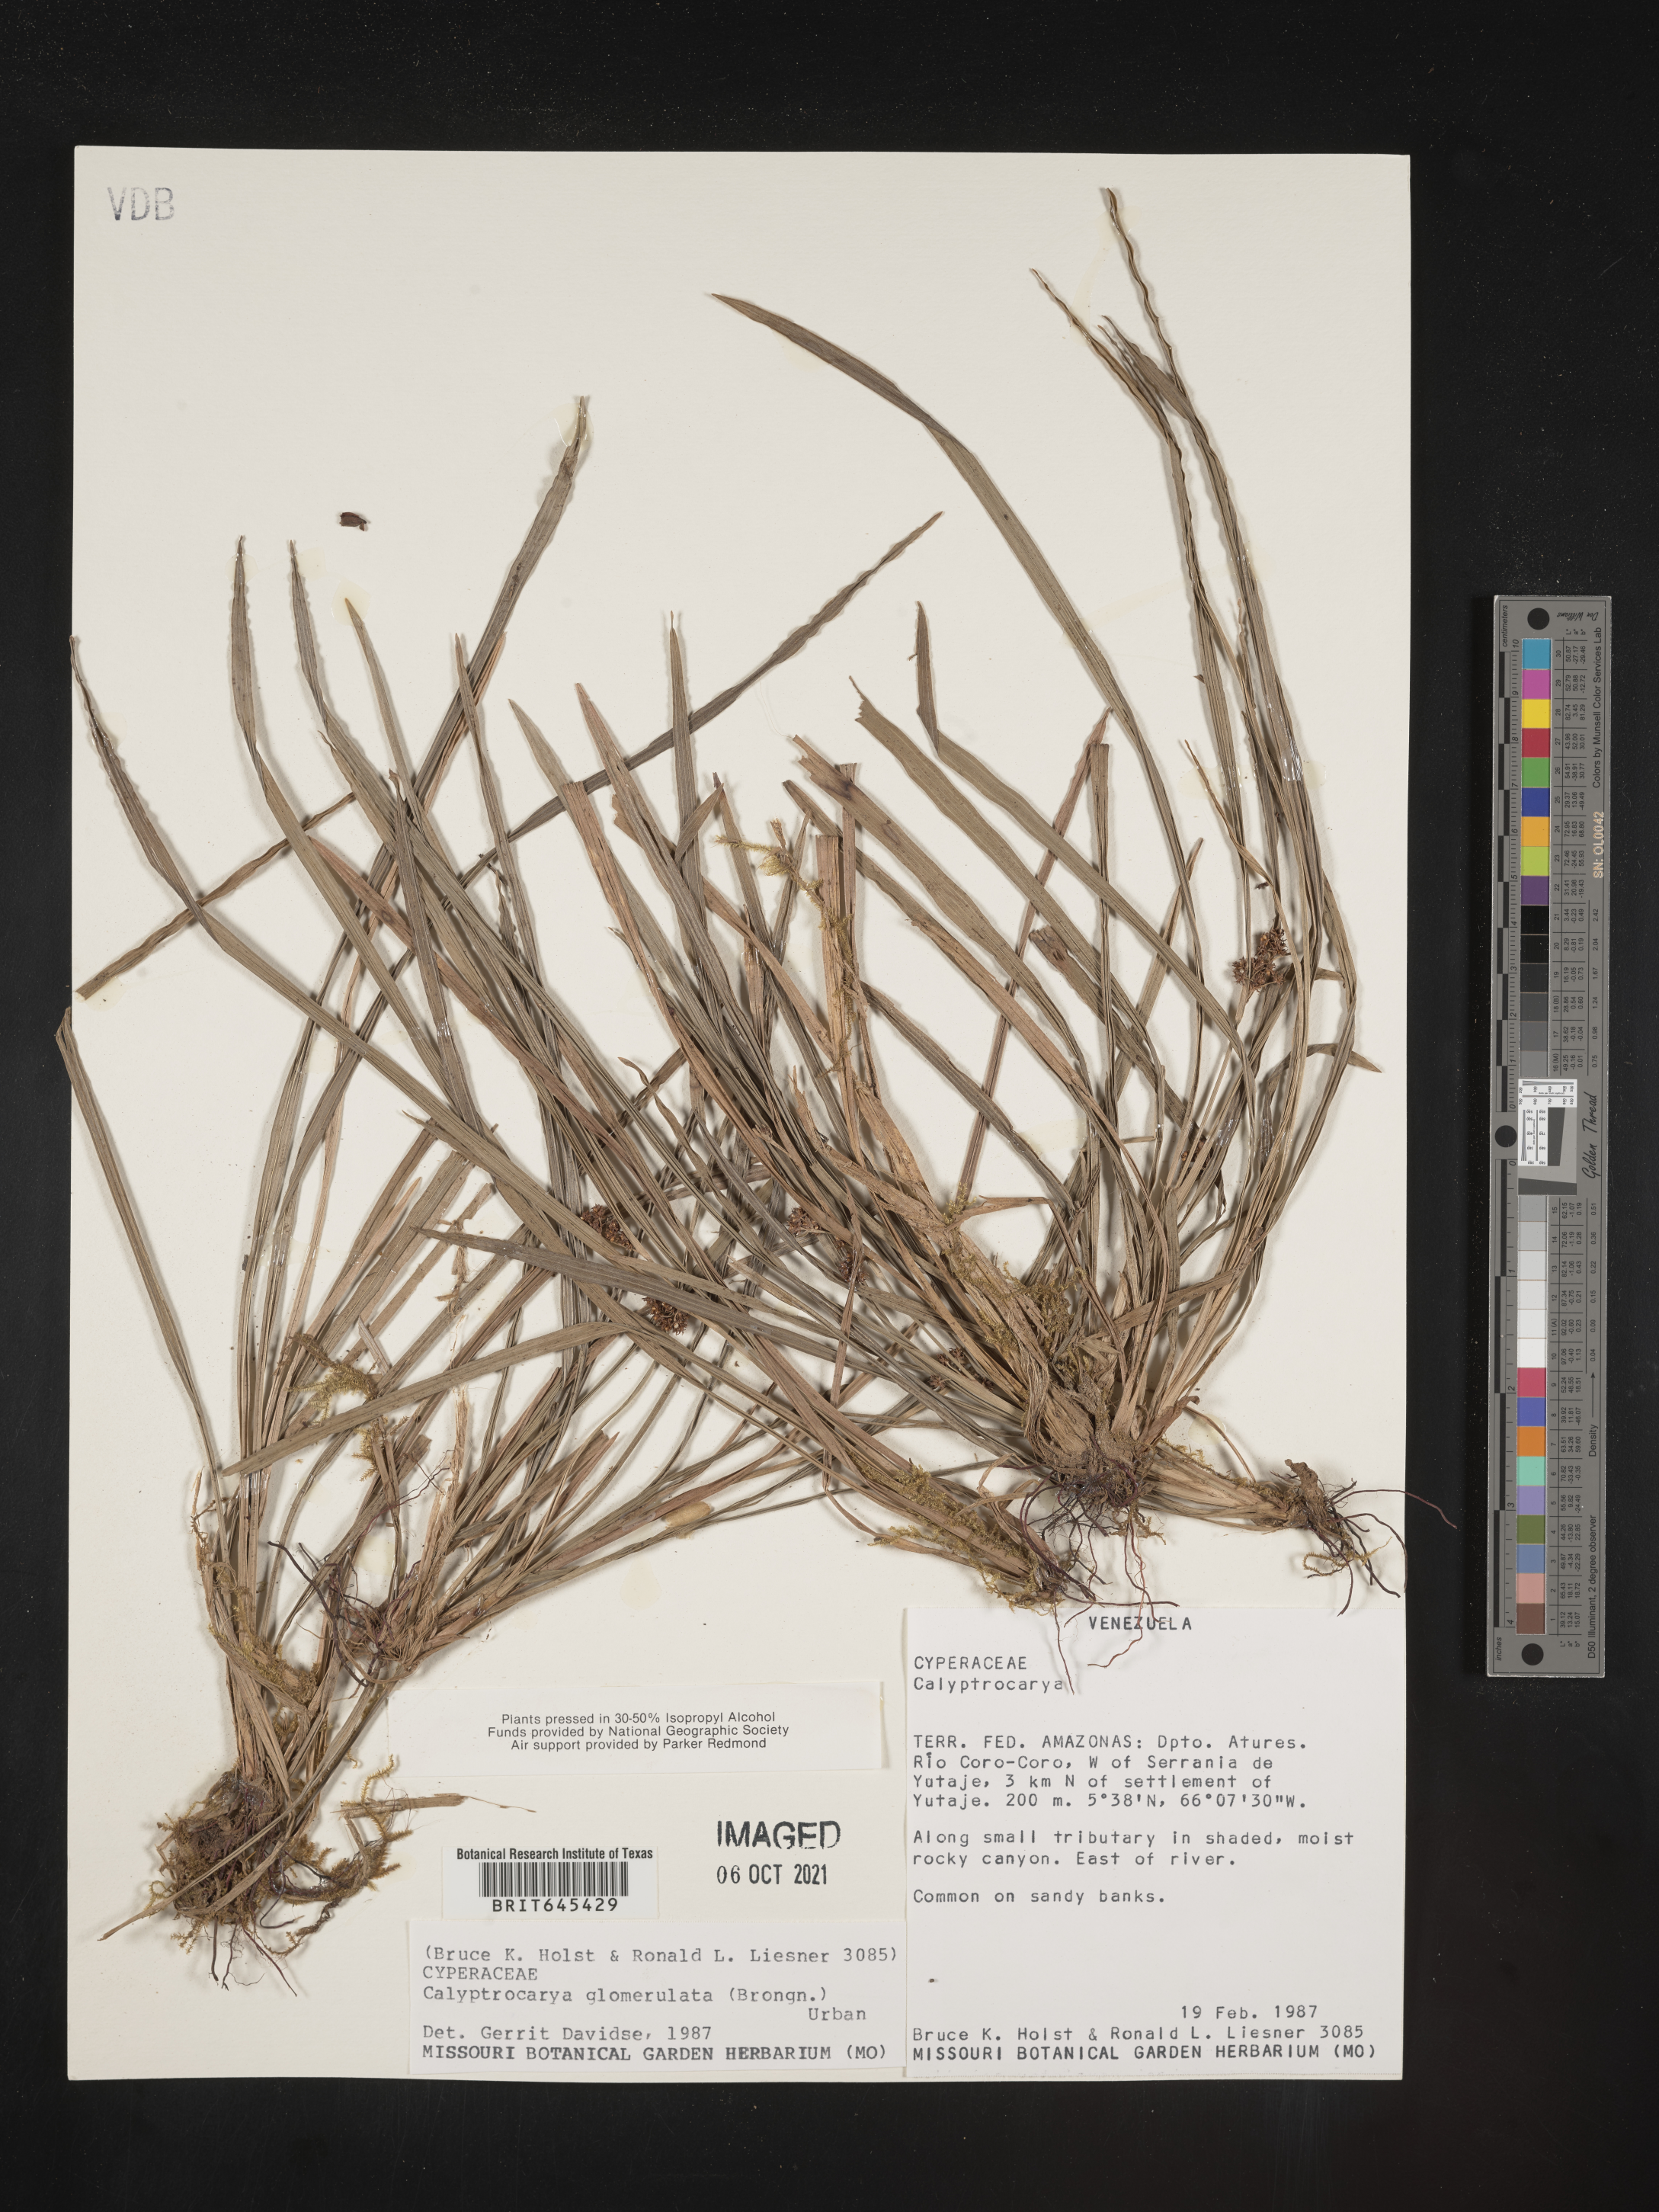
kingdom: Plantae
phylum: Tracheophyta
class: Liliopsida
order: Poales
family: Cyperaceae
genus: Calyptrocarya
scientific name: Calyptrocarya glomerulata
